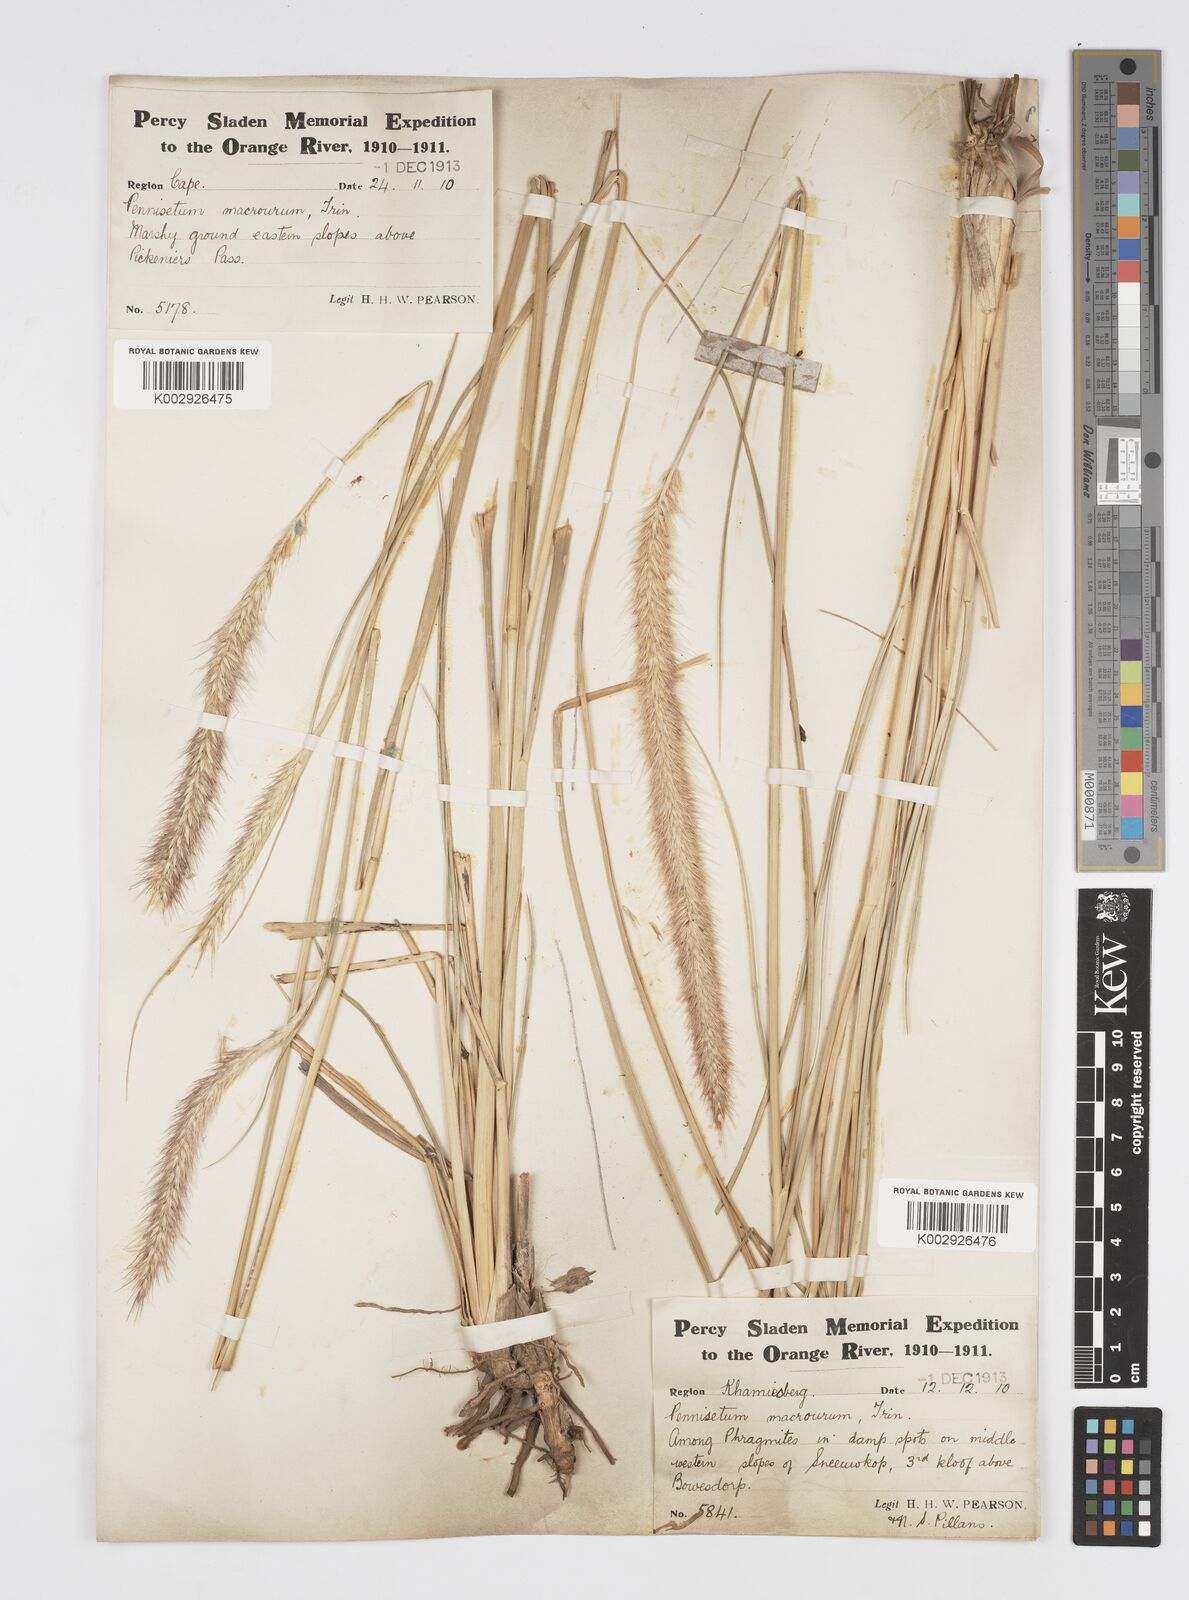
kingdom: Plantae
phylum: Tracheophyta
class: Liliopsida
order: Poales
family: Poaceae
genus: Cenchrus
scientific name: Cenchrus caudatus
